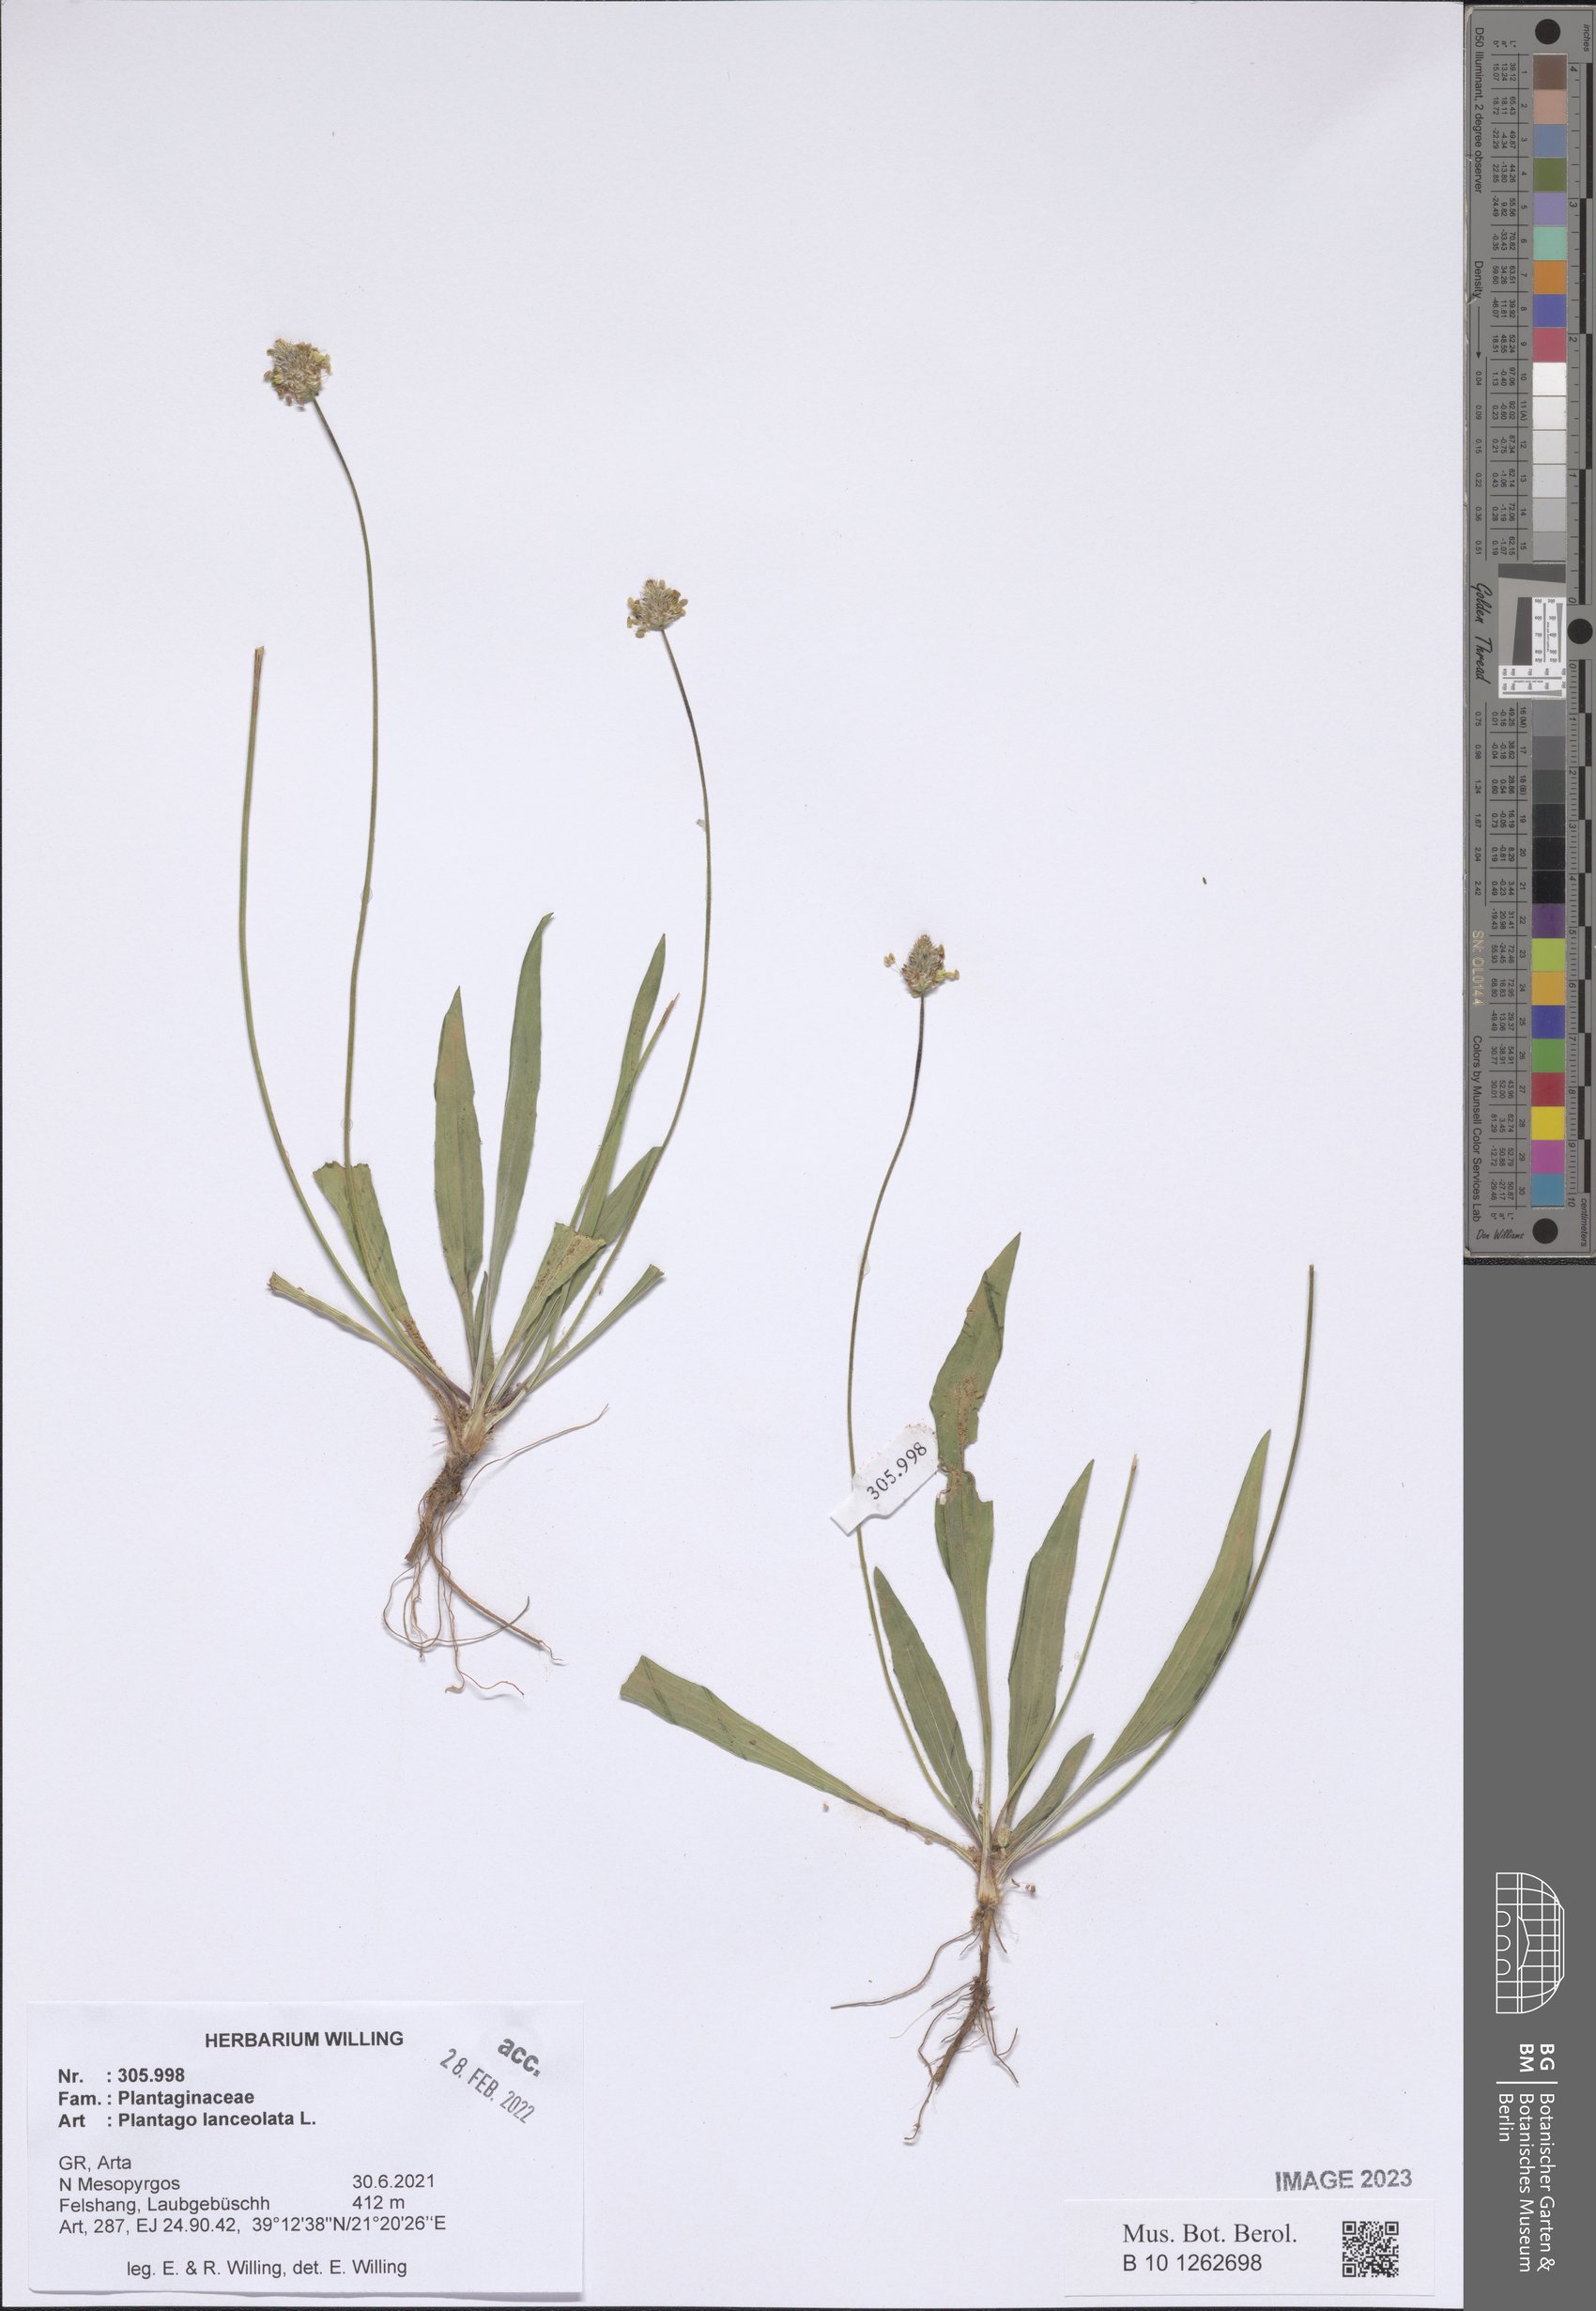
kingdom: Plantae
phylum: Tracheophyta
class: Magnoliopsida
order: Lamiales
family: Plantaginaceae
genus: Plantago
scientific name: Plantago lanceolata
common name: Ribwort plantain
